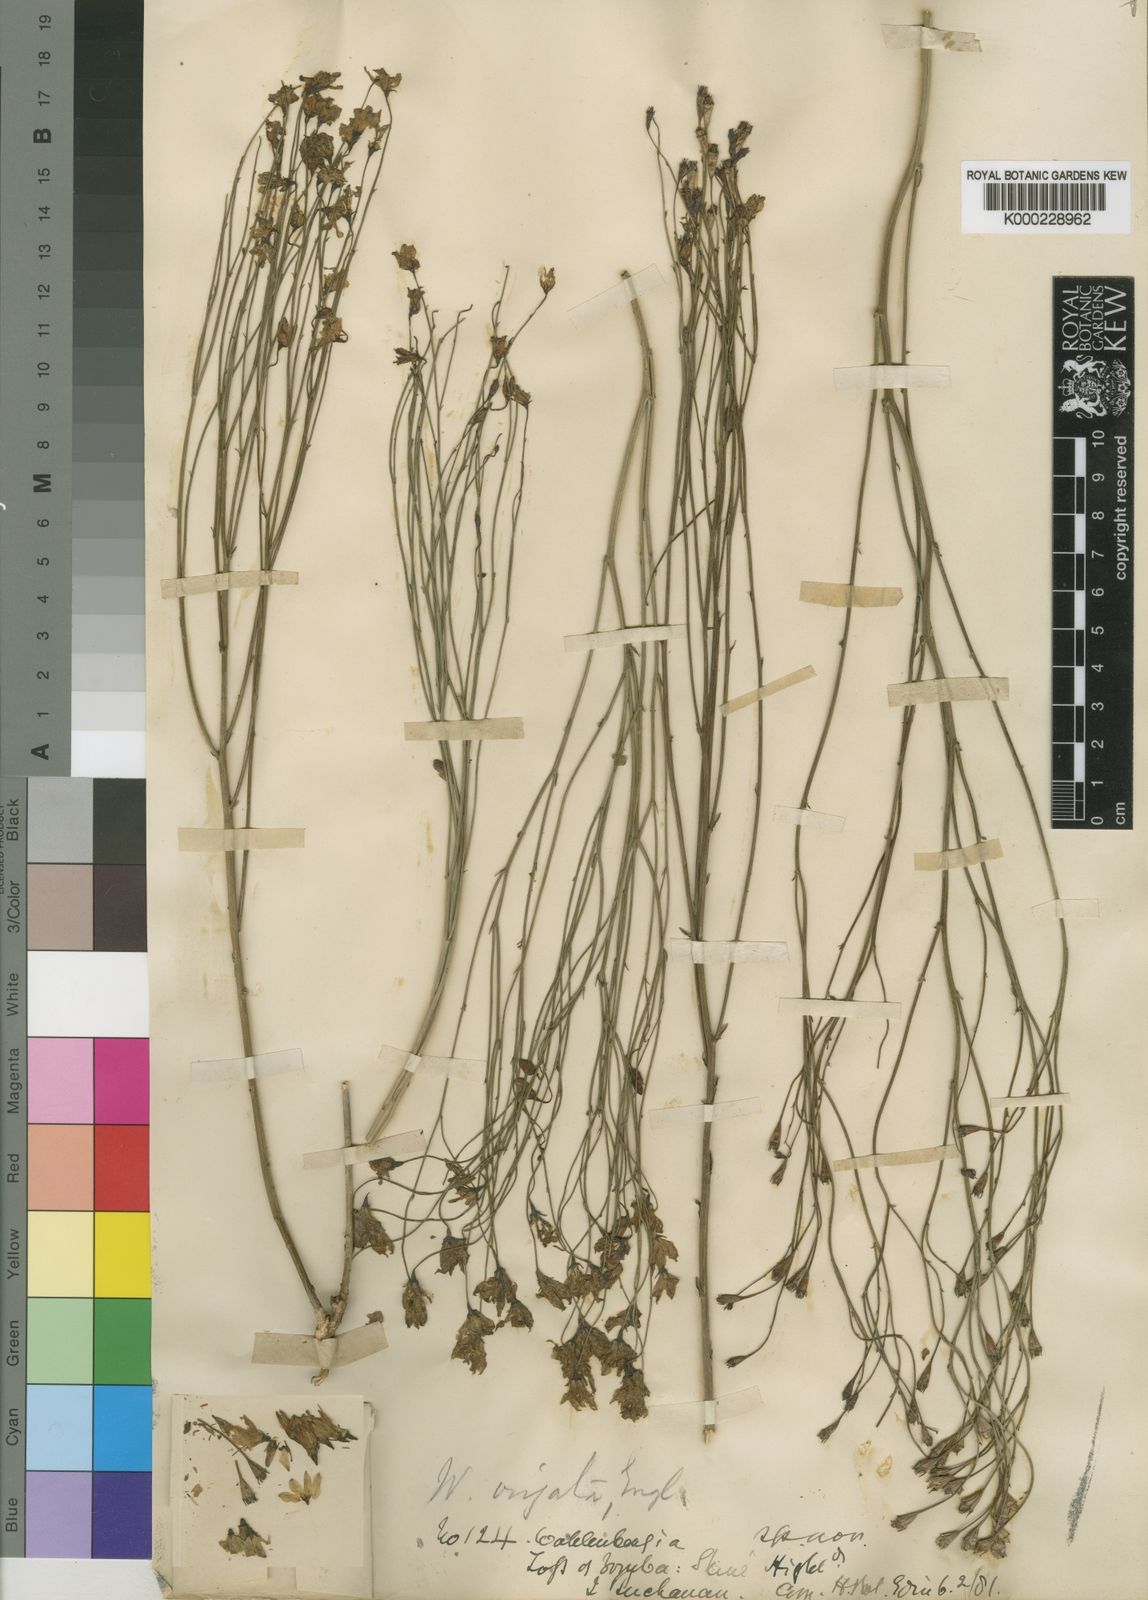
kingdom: Plantae
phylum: Tracheophyta
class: Magnoliopsida
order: Asterales
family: Campanulaceae
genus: Wahlenbergia
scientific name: Wahlenbergia virgata
